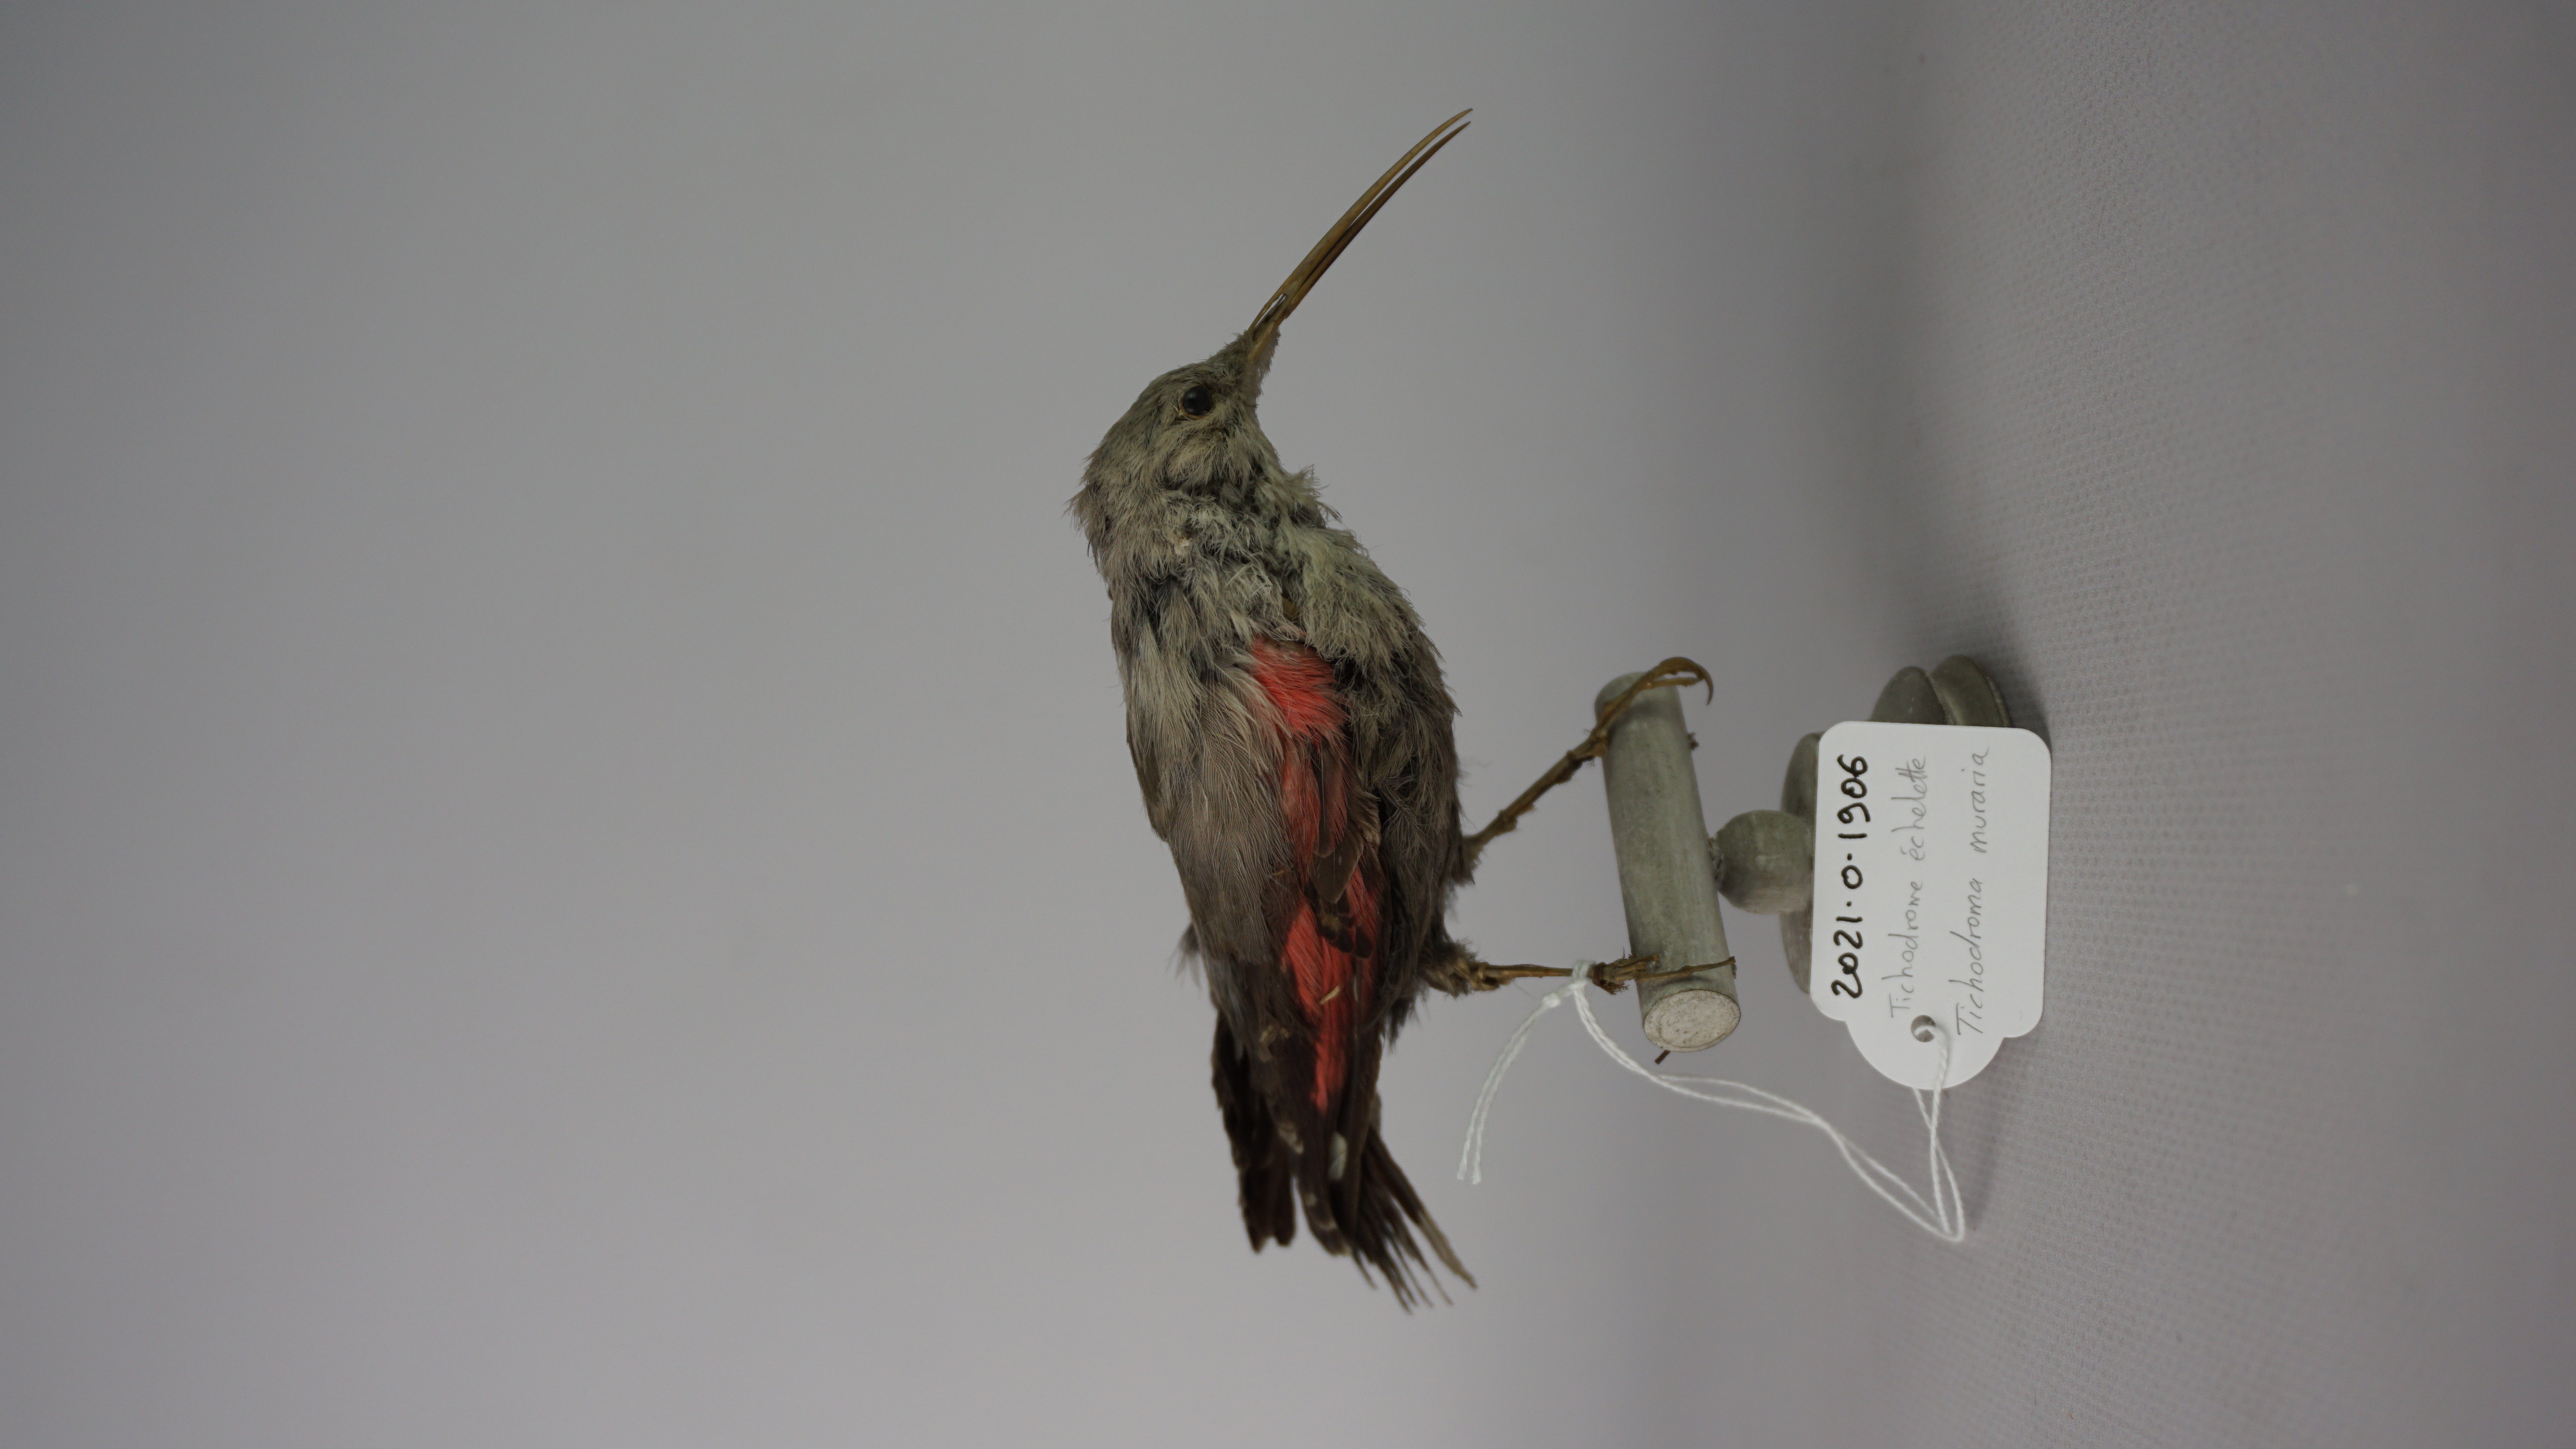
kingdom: Animalia
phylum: Chordata
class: Aves
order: Passeriformes
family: Tichodromidae
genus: Tichodroma
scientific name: Tichodroma muraria
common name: Wallcreeper
